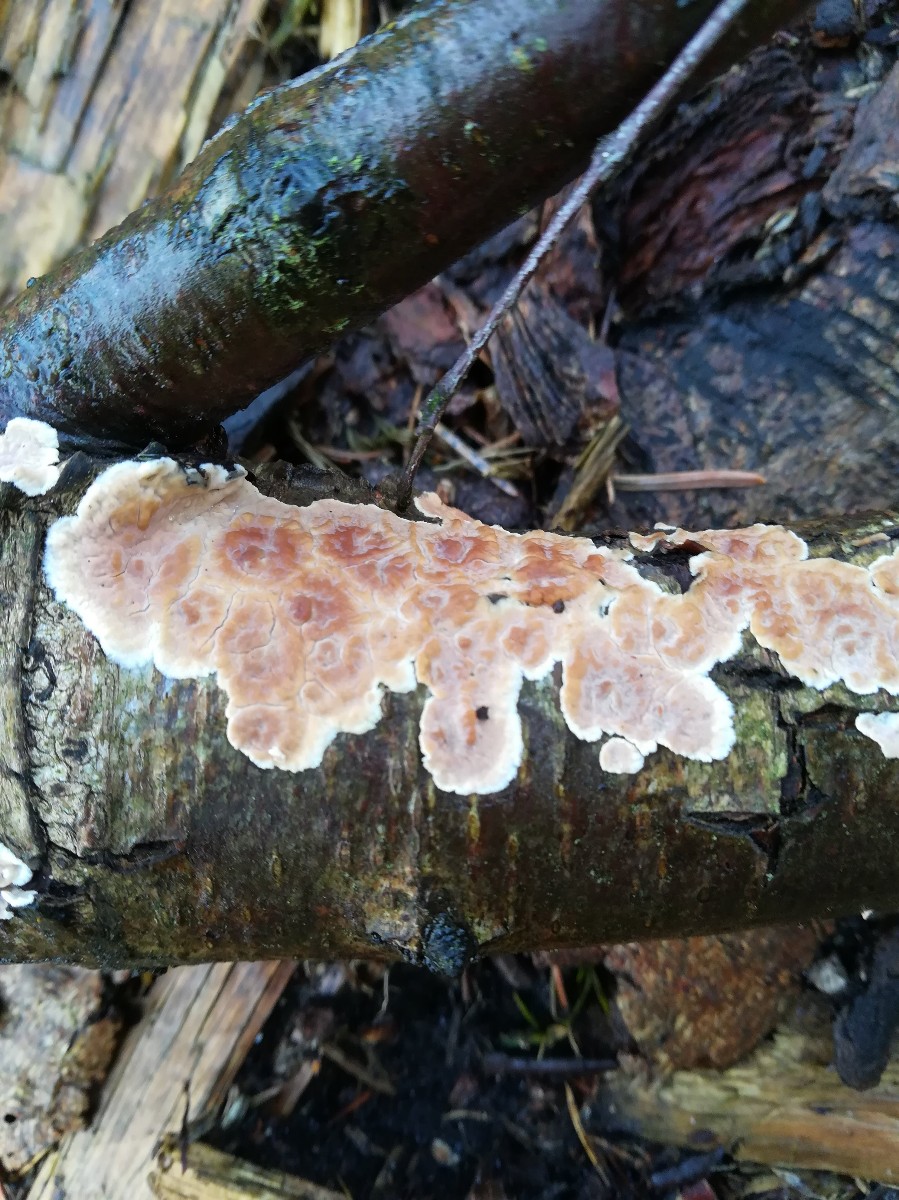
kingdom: Fungi
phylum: Basidiomycota
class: Agaricomycetes
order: Agaricales
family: Physalacriaceae
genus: Cylindrobasidium
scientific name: Cylindrobasidium evolvens
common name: sprækkehinde
